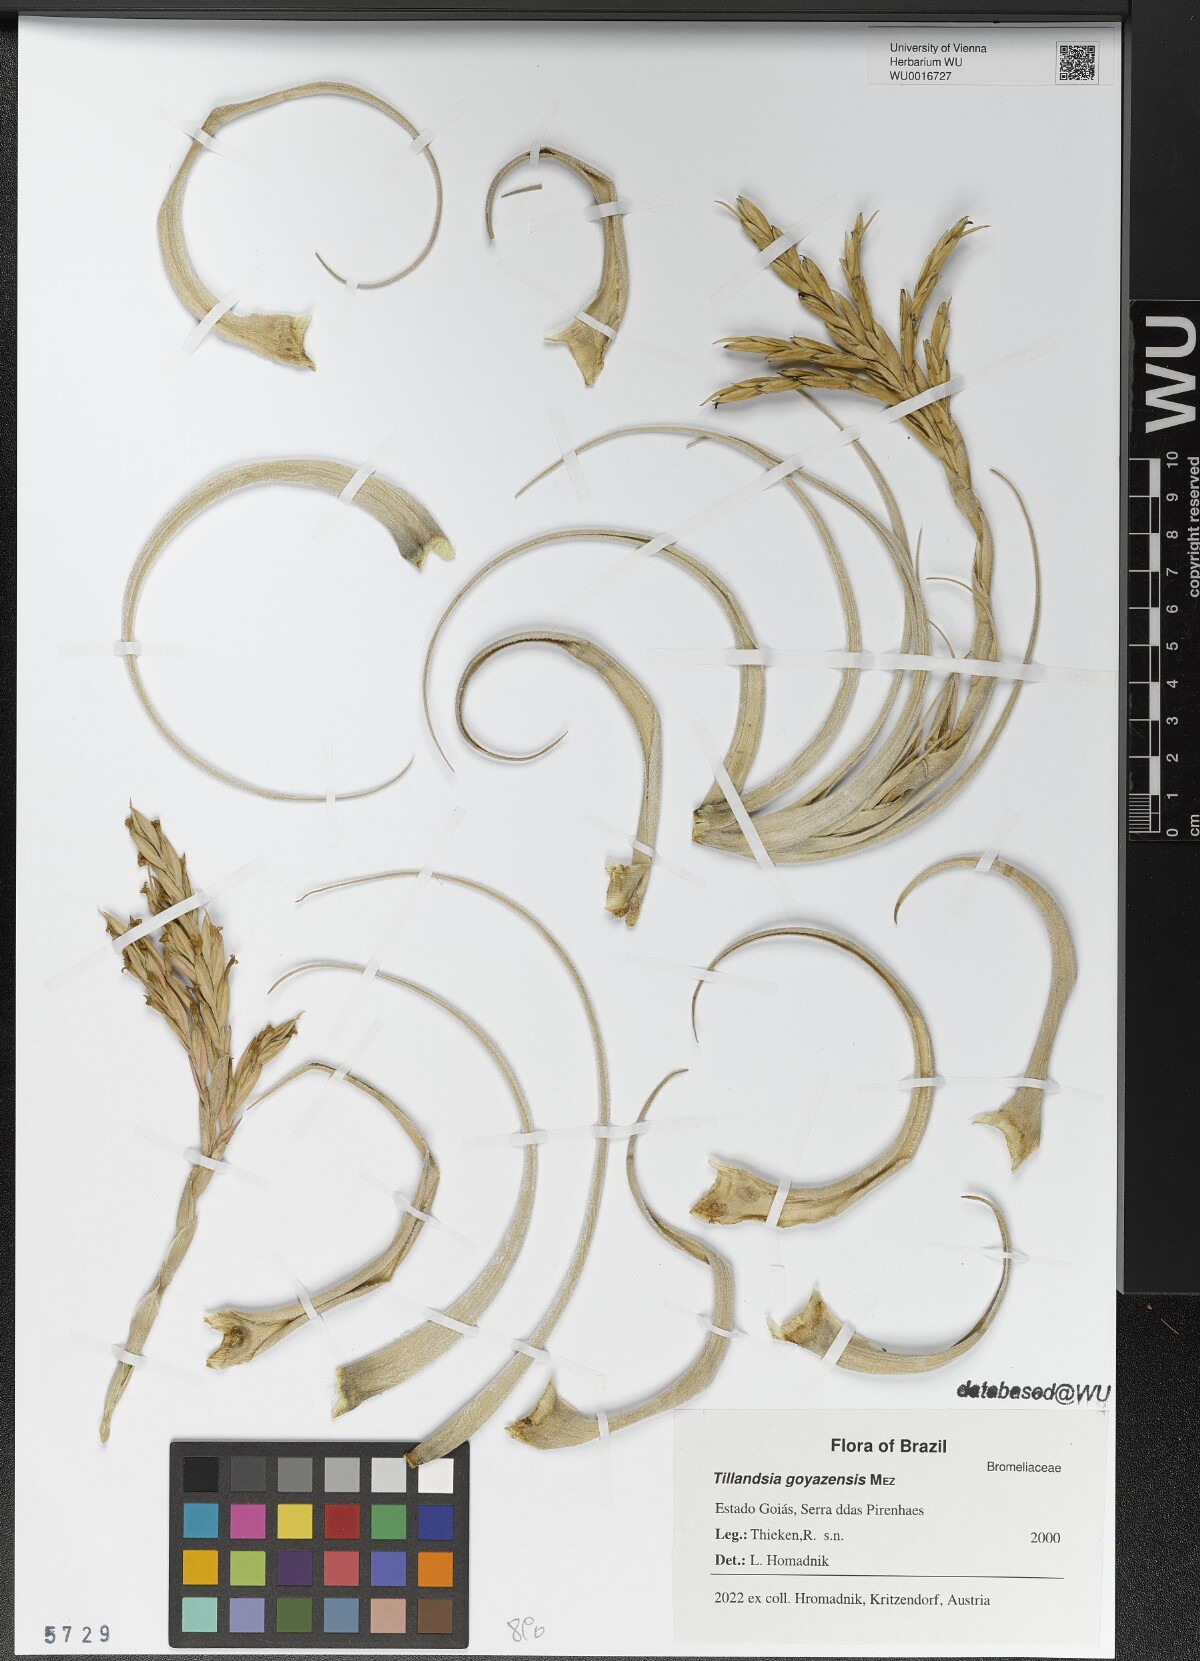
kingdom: Plantae
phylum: Tracheophyta
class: Liliopsida
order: Poales
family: Bromeliaceae
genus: Tillandsia
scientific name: Tillandsia didisticha
